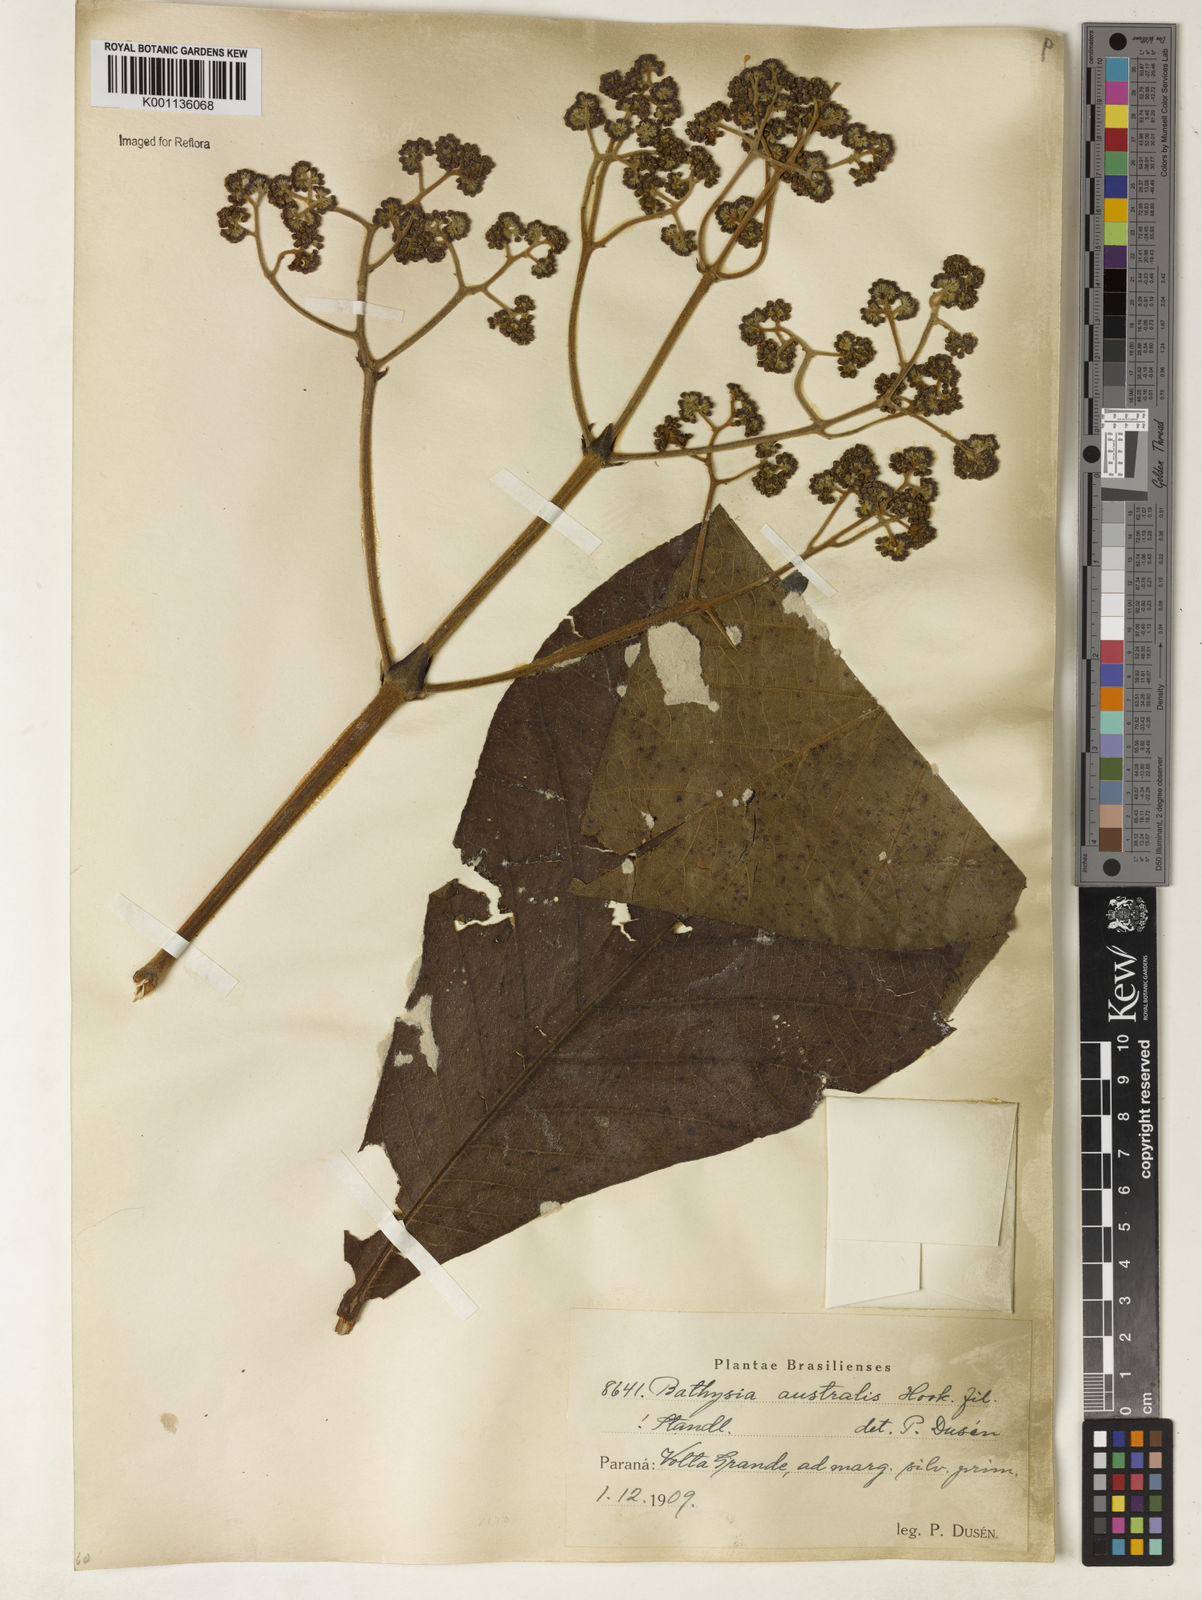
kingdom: Plantae
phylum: Tracheophyta
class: Magnoliopsida
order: Gentianales
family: Rubiaceae
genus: Bathysa
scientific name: Bathysa australis
